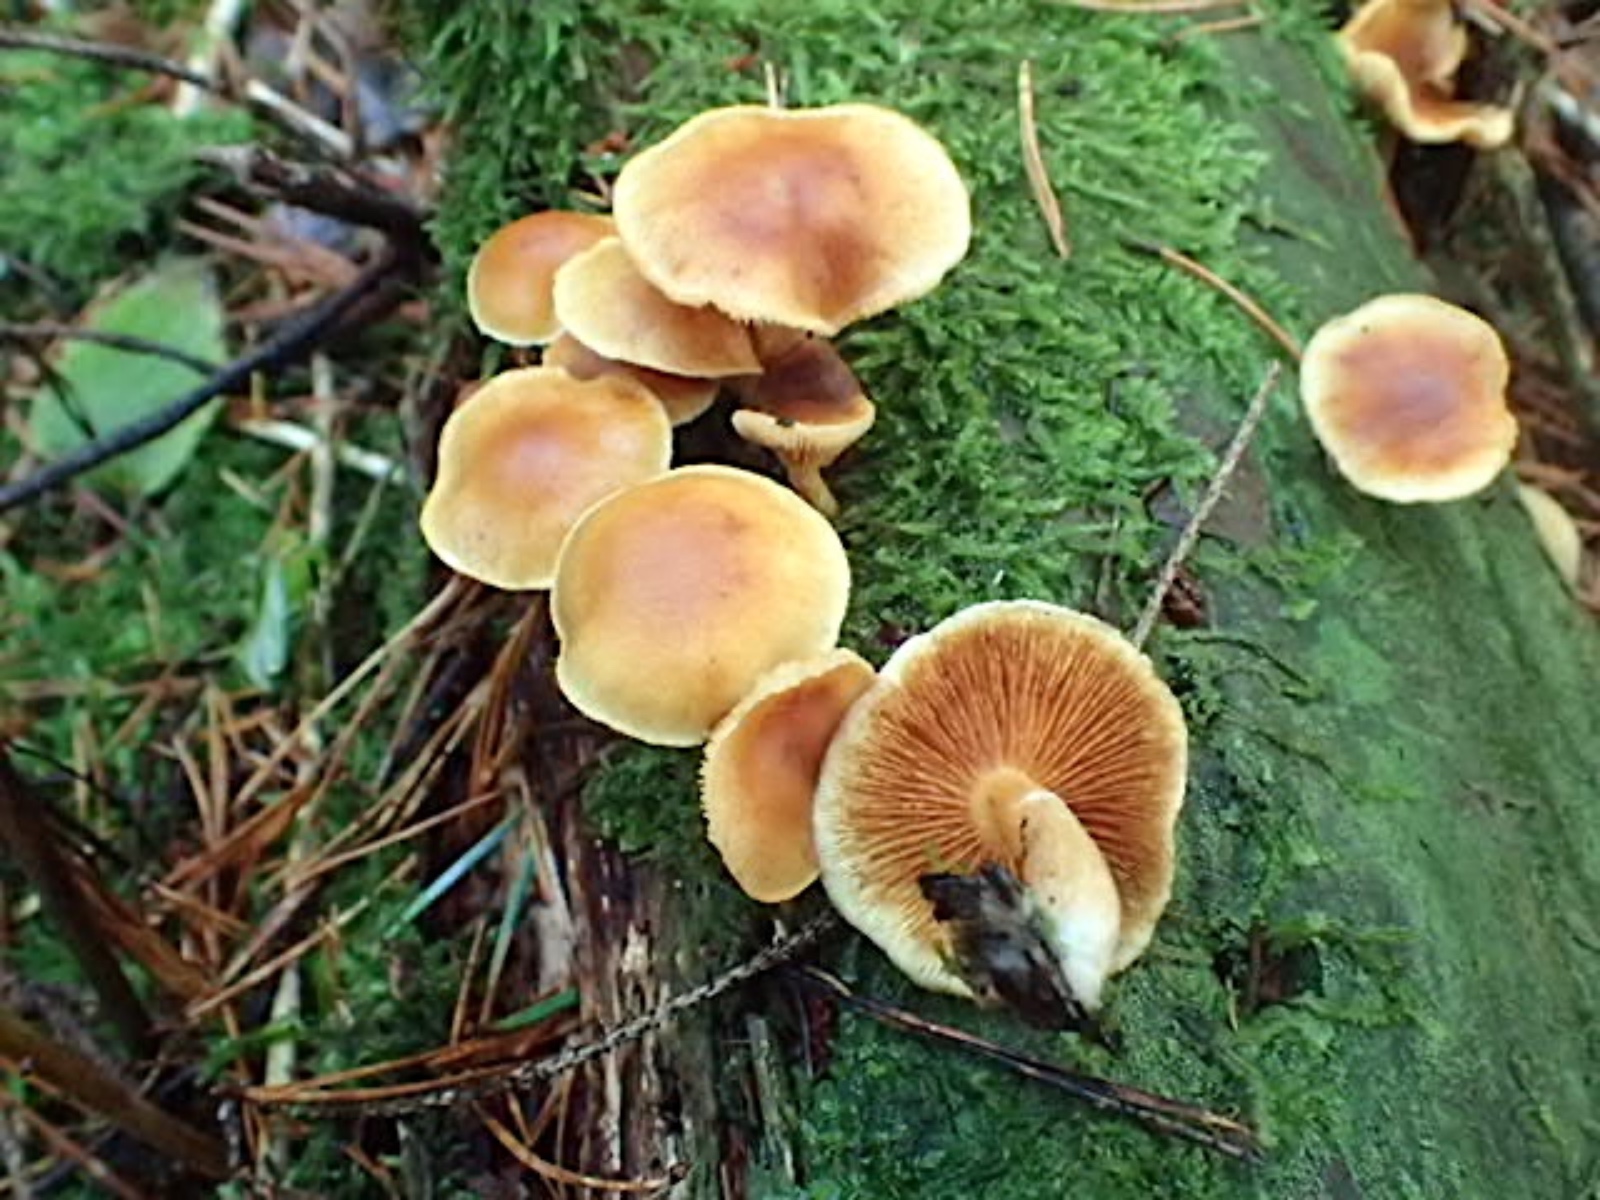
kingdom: Fungi
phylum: Basidiomycota
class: Agaricomycetes
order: Agaricales
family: Hymenogastraceae
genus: Gymnopilus
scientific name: Gymnopilus penetrans
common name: plettet flammehat
